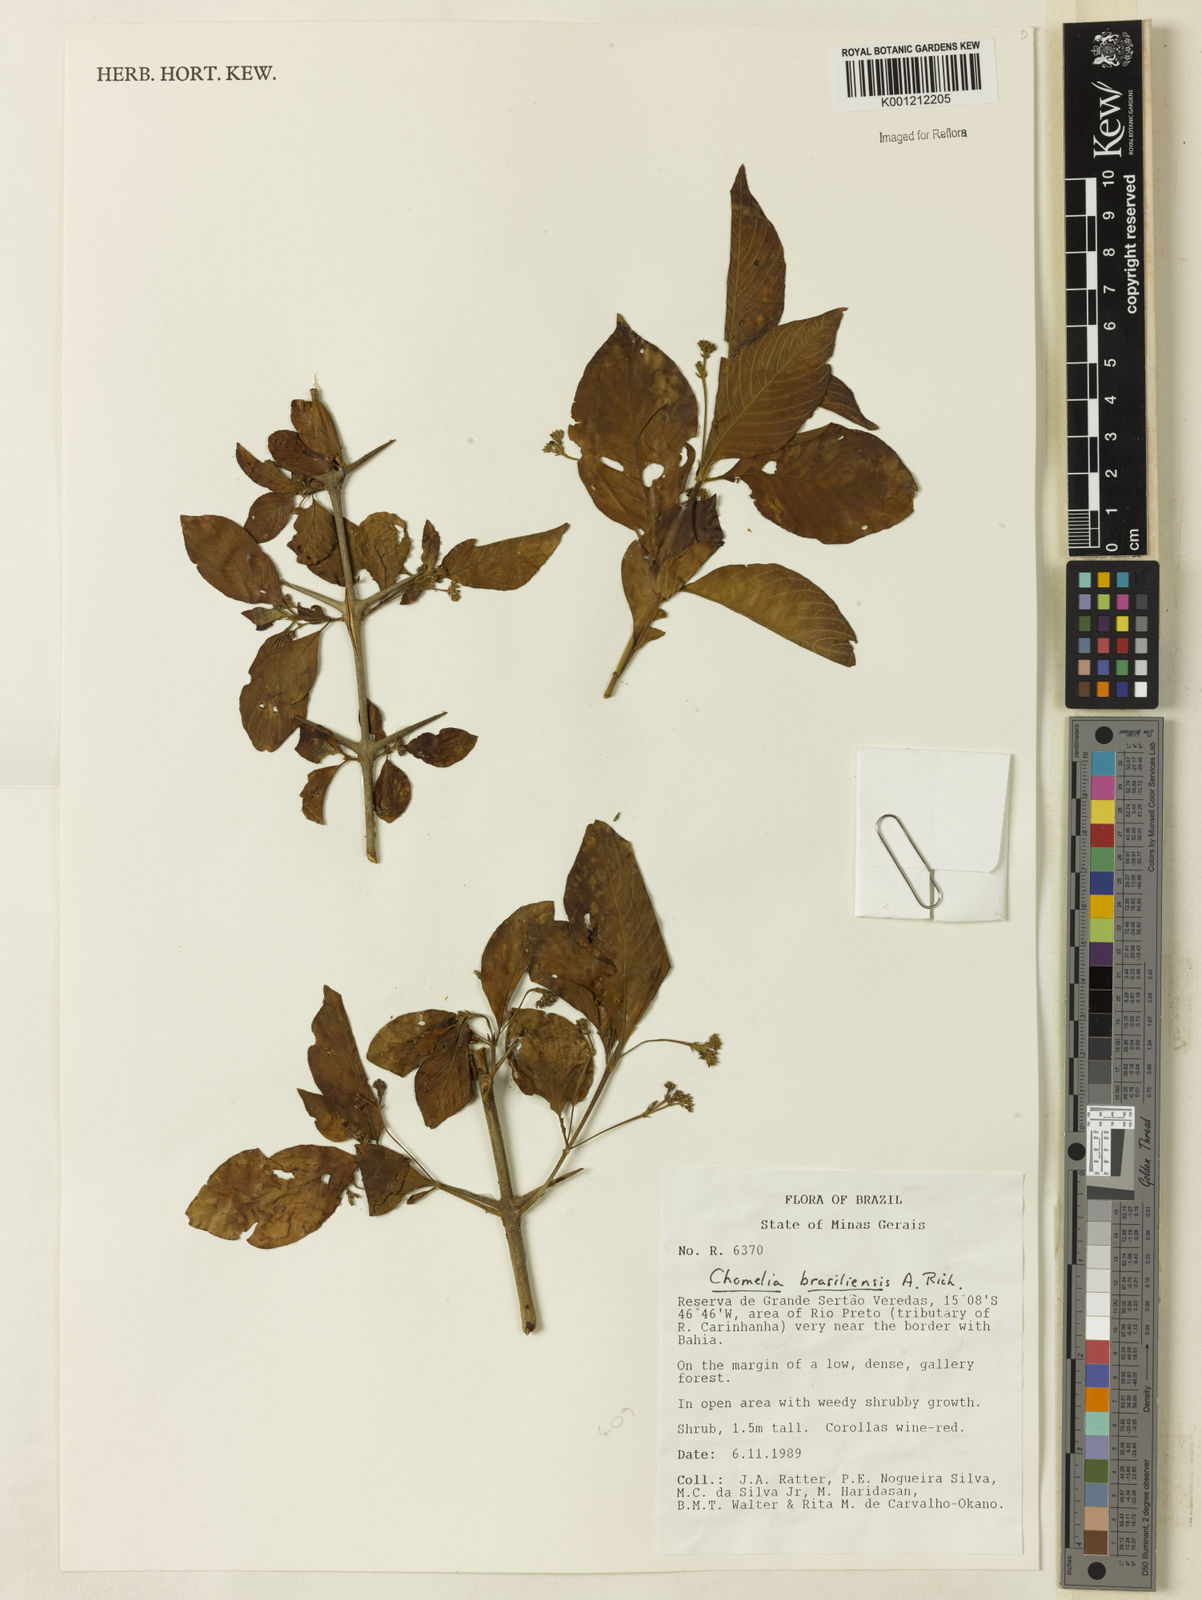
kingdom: Plantae
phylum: Tracheophyta
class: Magnoliopsida
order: Gentianales
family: Rubiaceae
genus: Chomelia
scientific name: Chomelia brasiliana
